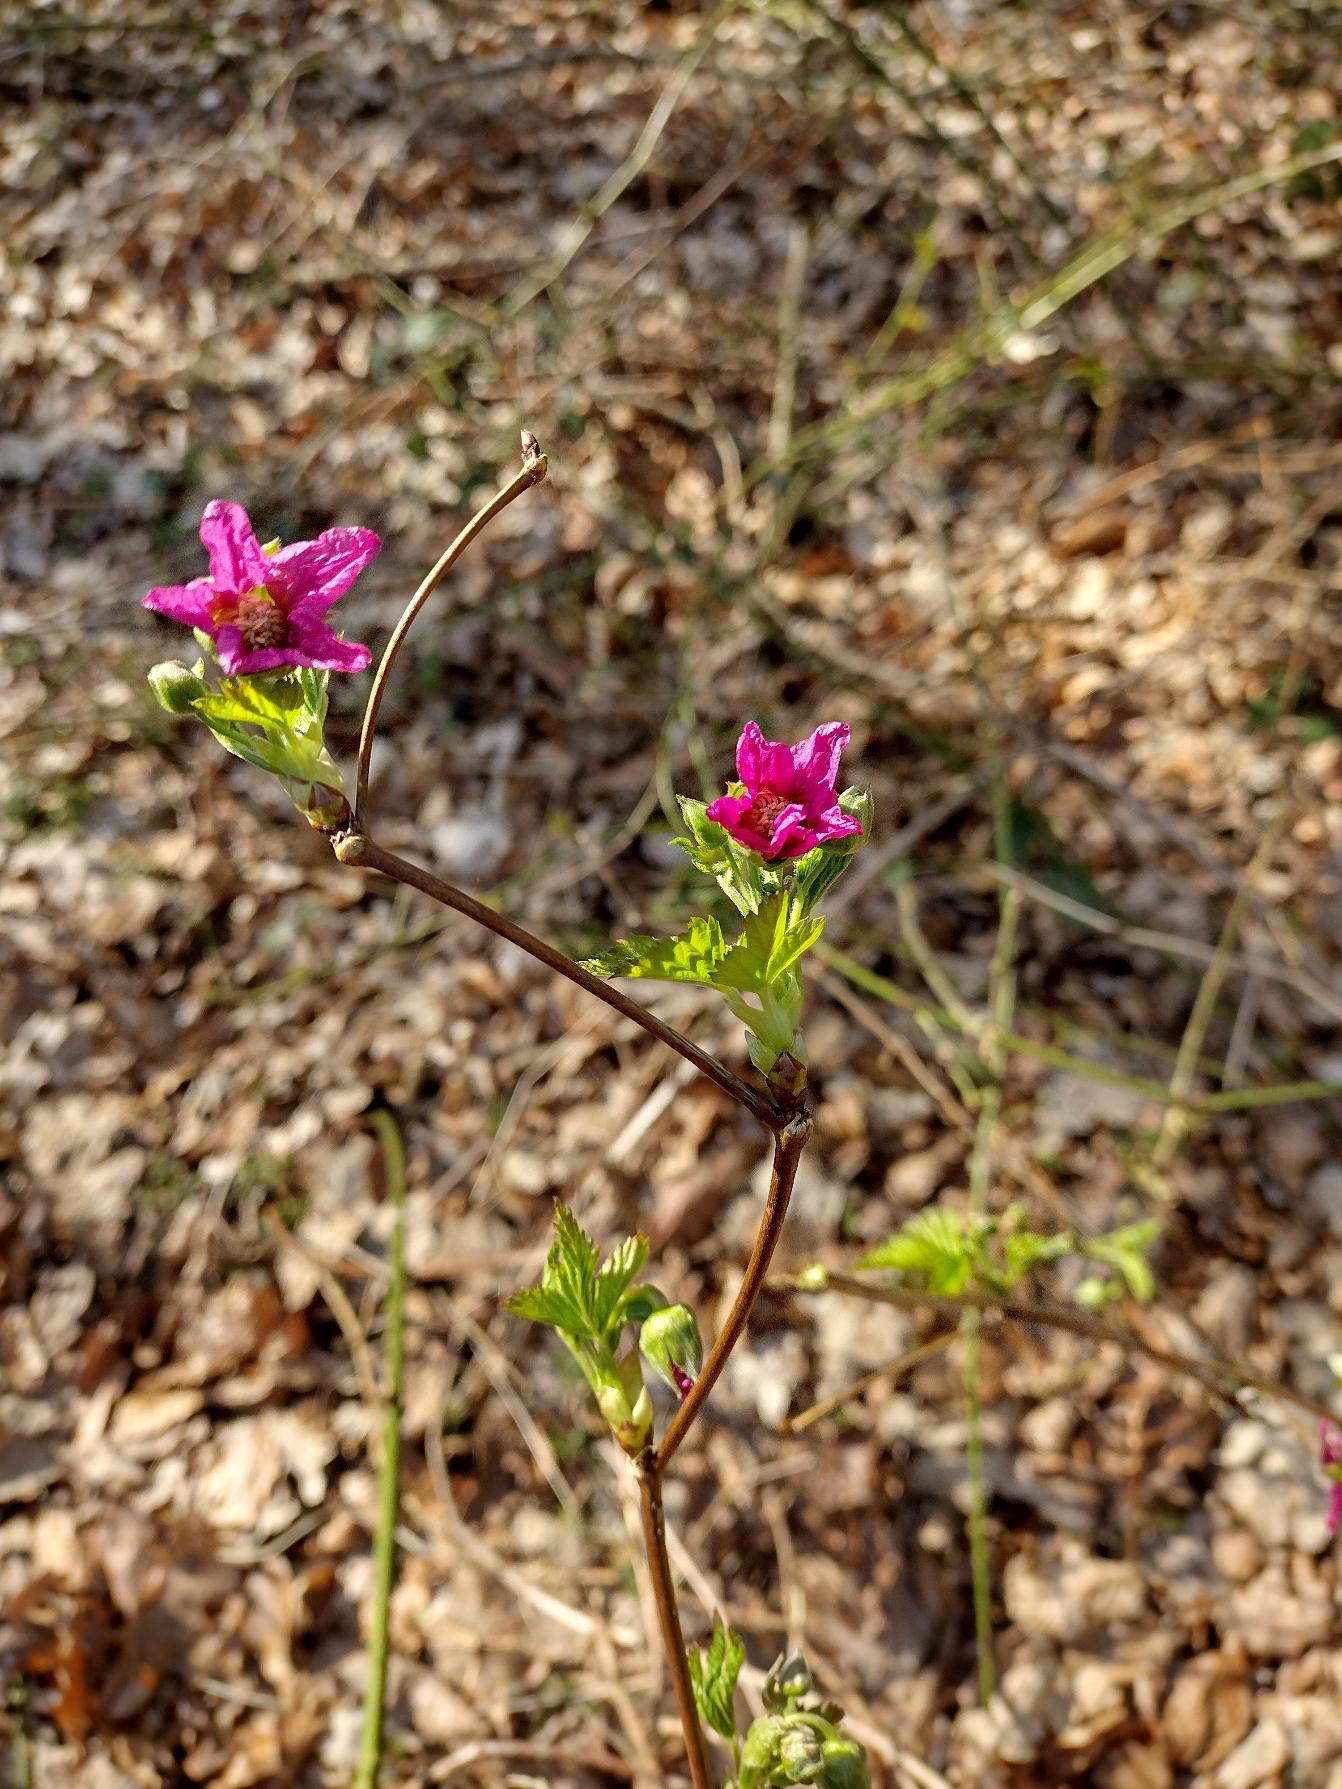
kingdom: Plantae
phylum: Tracheophyta
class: Magnoliopsida
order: Rosales
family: Rosaceae
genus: Rubus
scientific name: Rubus spectabilis
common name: Laksebær
